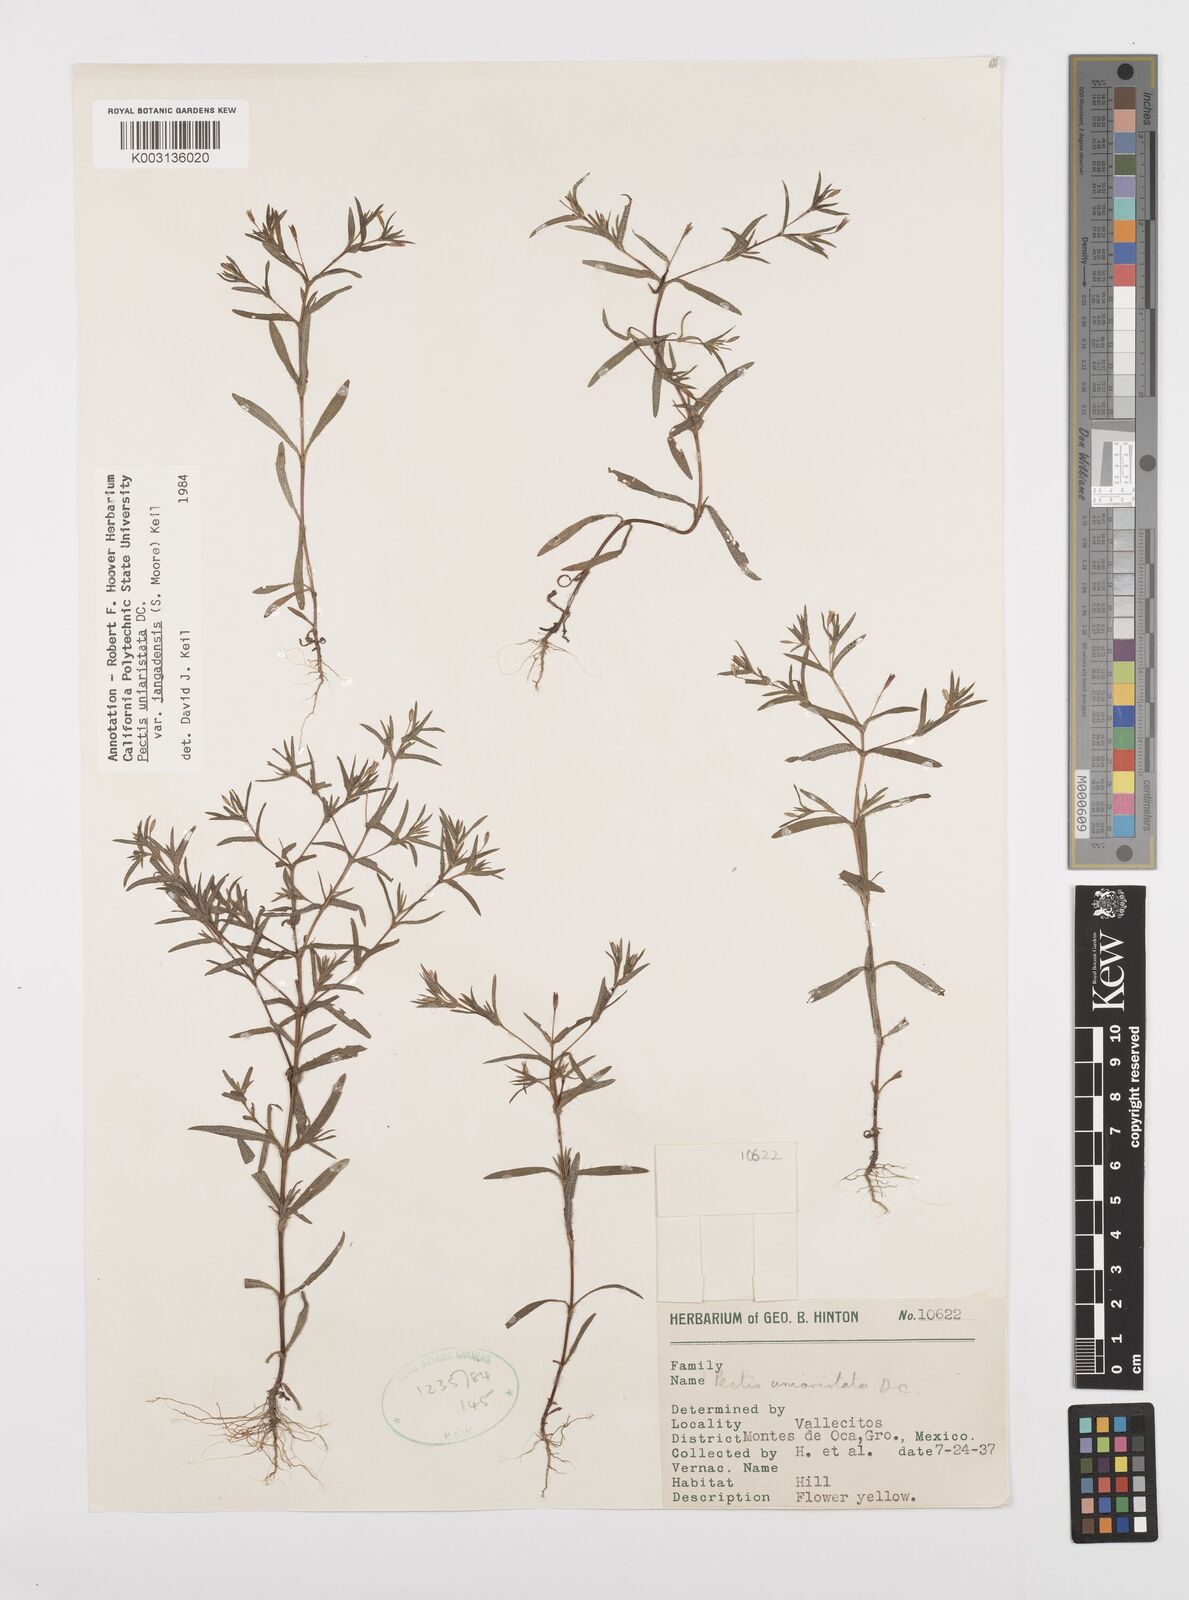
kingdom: Plantae
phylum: Tracheophyta
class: Magnoliopsida
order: Asterales
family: Asteraceae
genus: Pectis
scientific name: Pectis uniaristata
